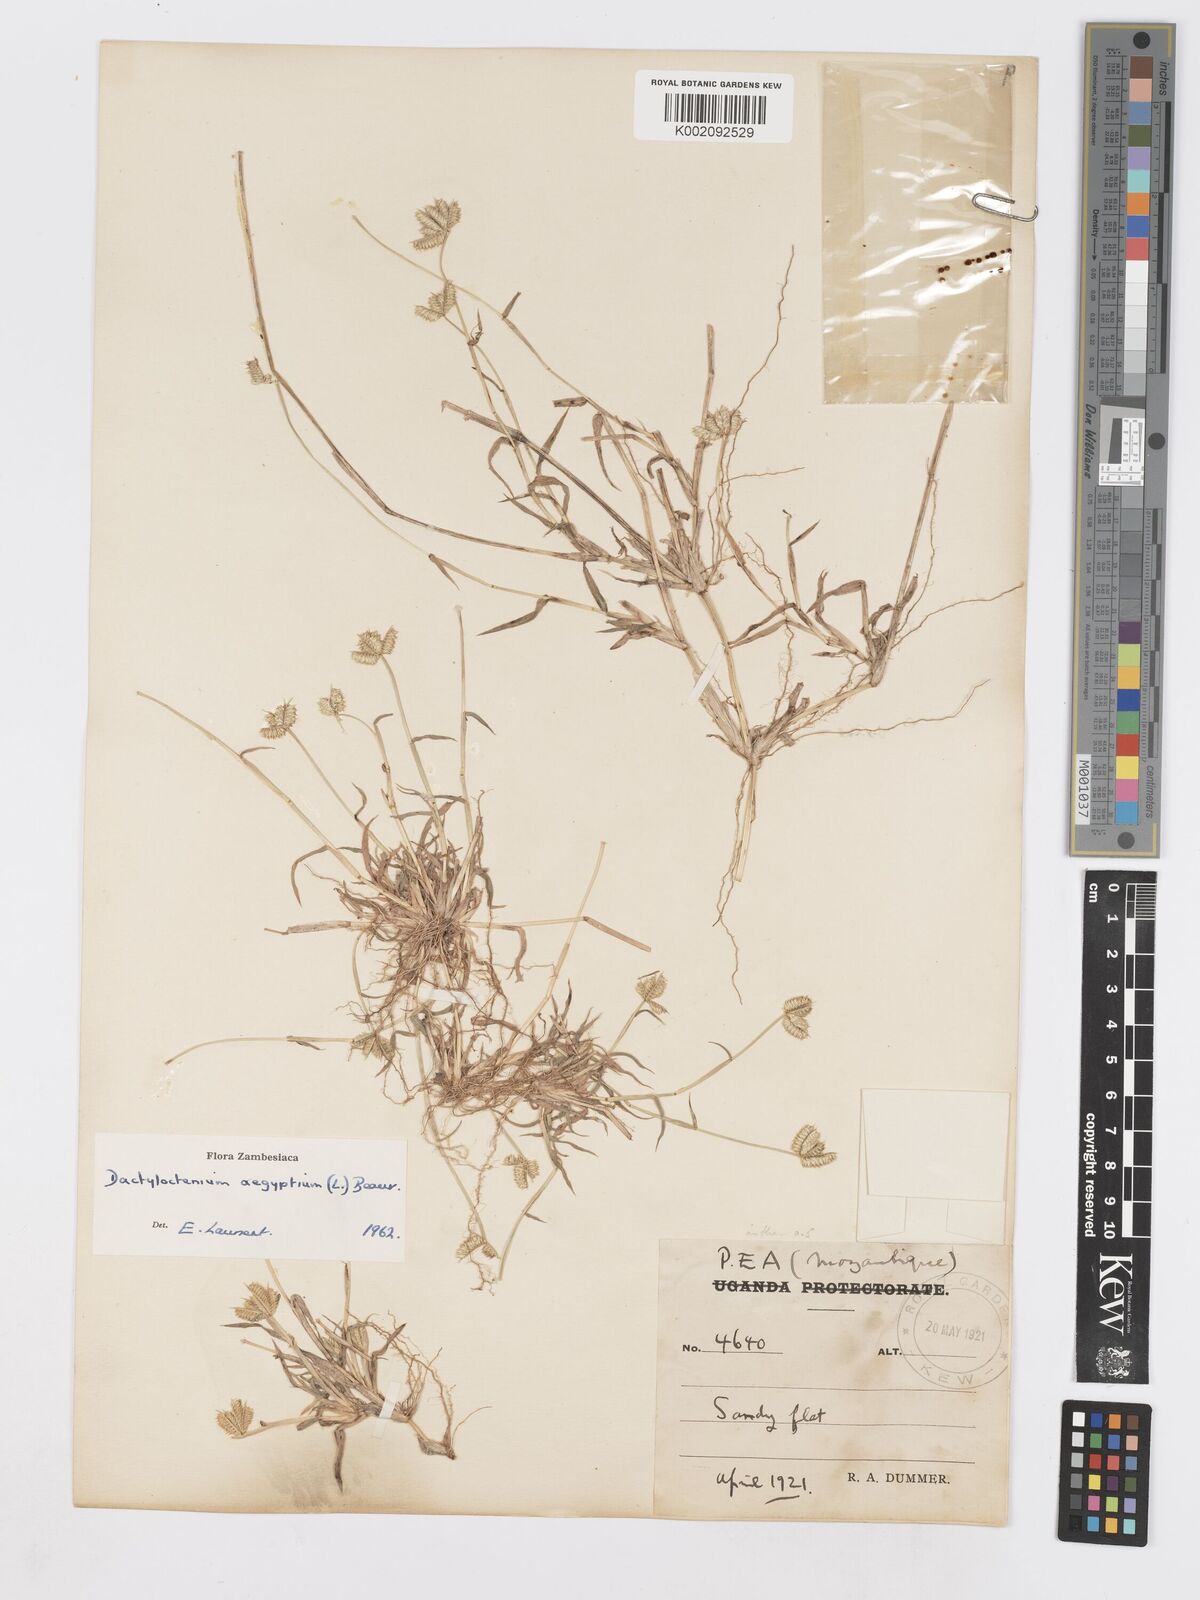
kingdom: Plantae
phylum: Tracheophyta
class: Liliopsida
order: Poales
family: Poaceae
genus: Dactyloctenium
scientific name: Dactyloctenium aegyptium
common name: Egyptian grass
